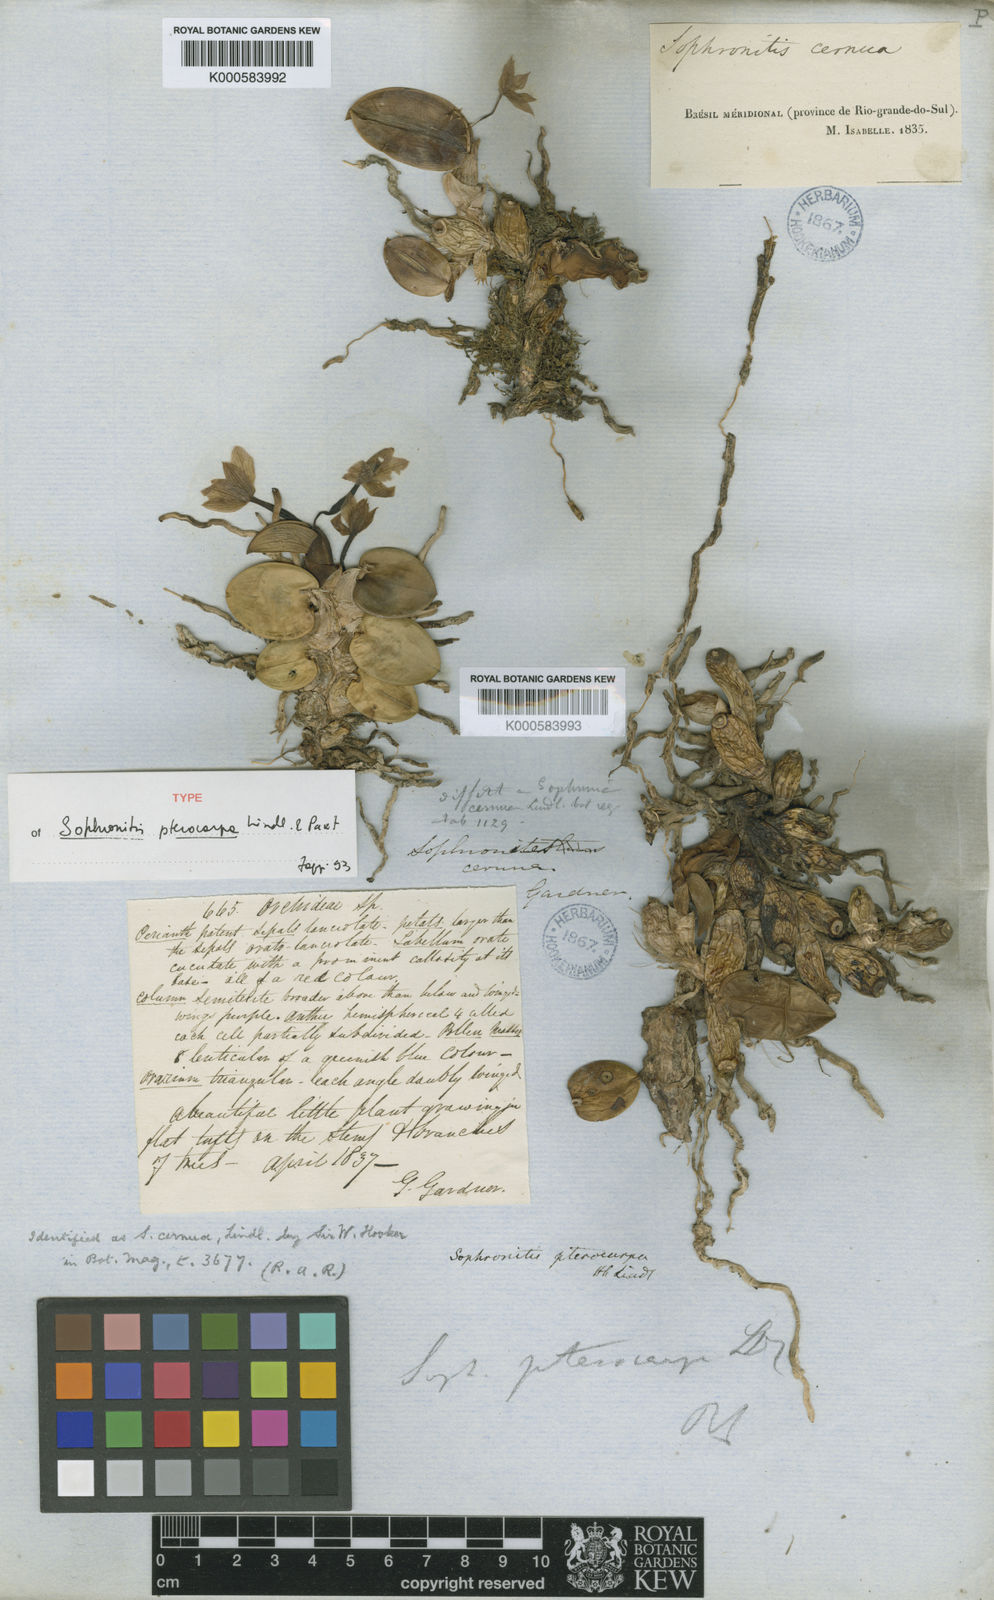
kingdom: Plantae
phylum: Tracheophyta
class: Liliopsida
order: Asparagales
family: Orchidaceae
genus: Cattleya
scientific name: Cattleya cernua
